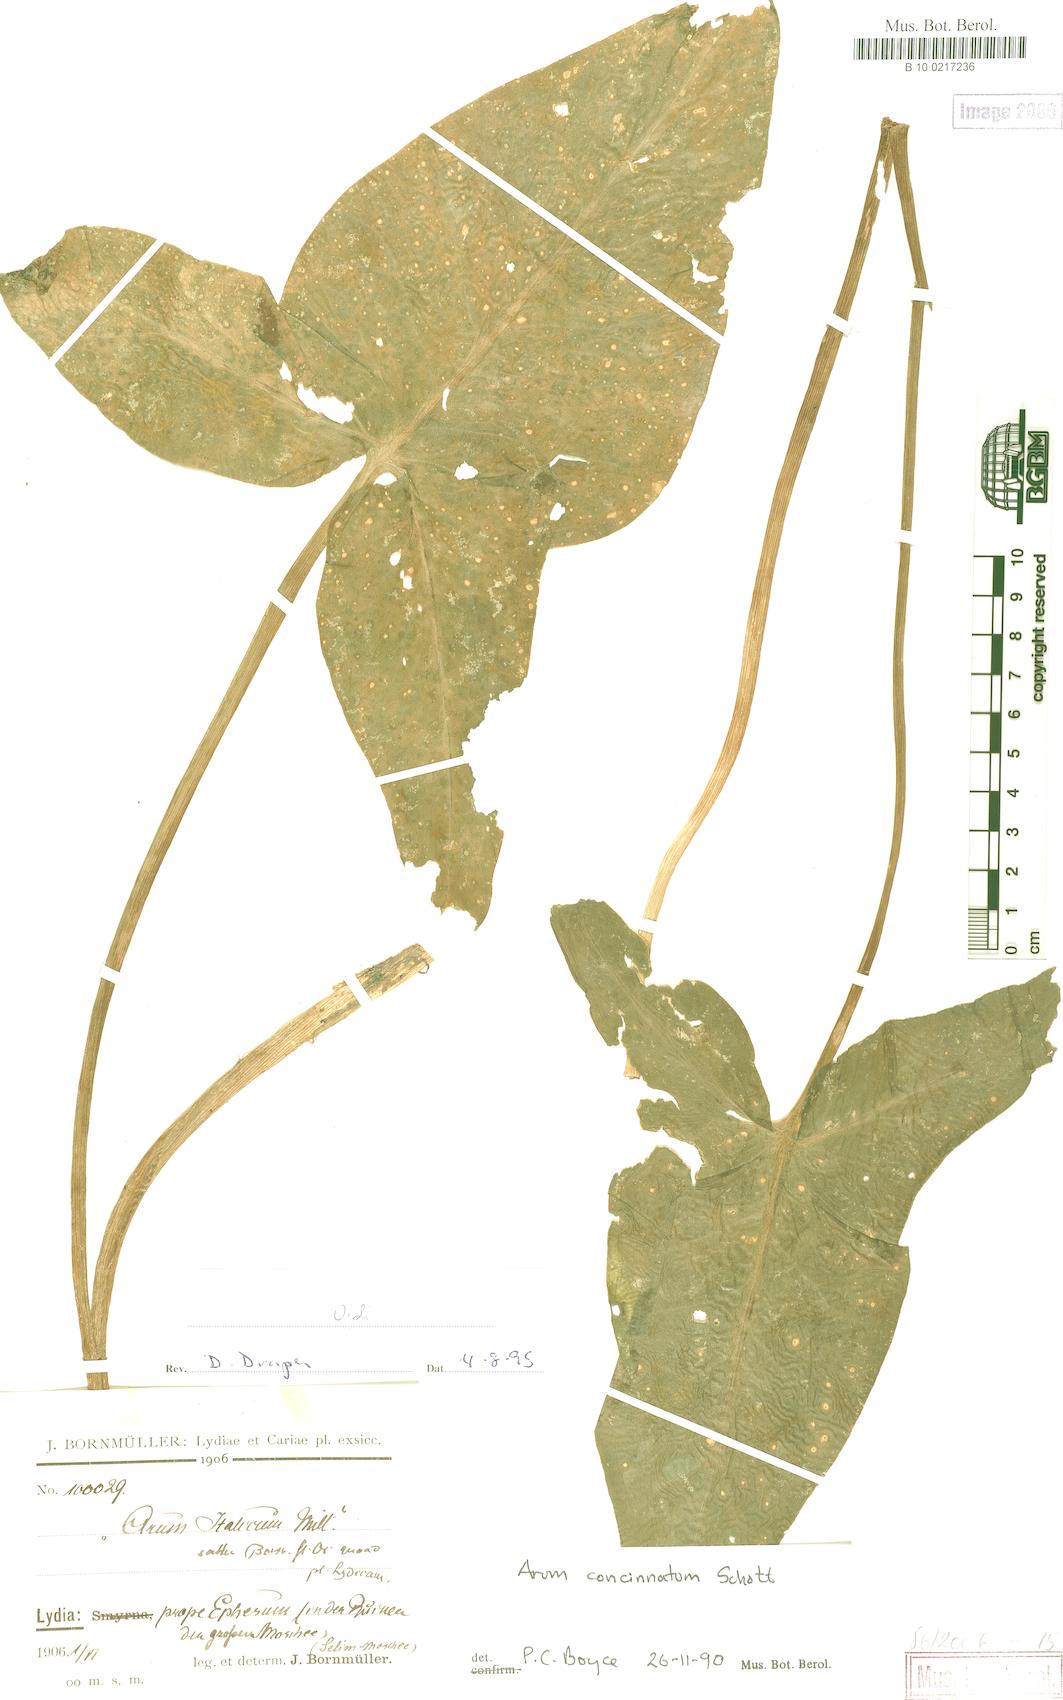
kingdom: Plantae
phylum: Tracheophyta
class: Liliopsida
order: Alismatales
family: Araceae
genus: Arum
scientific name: Arum concinnatum
